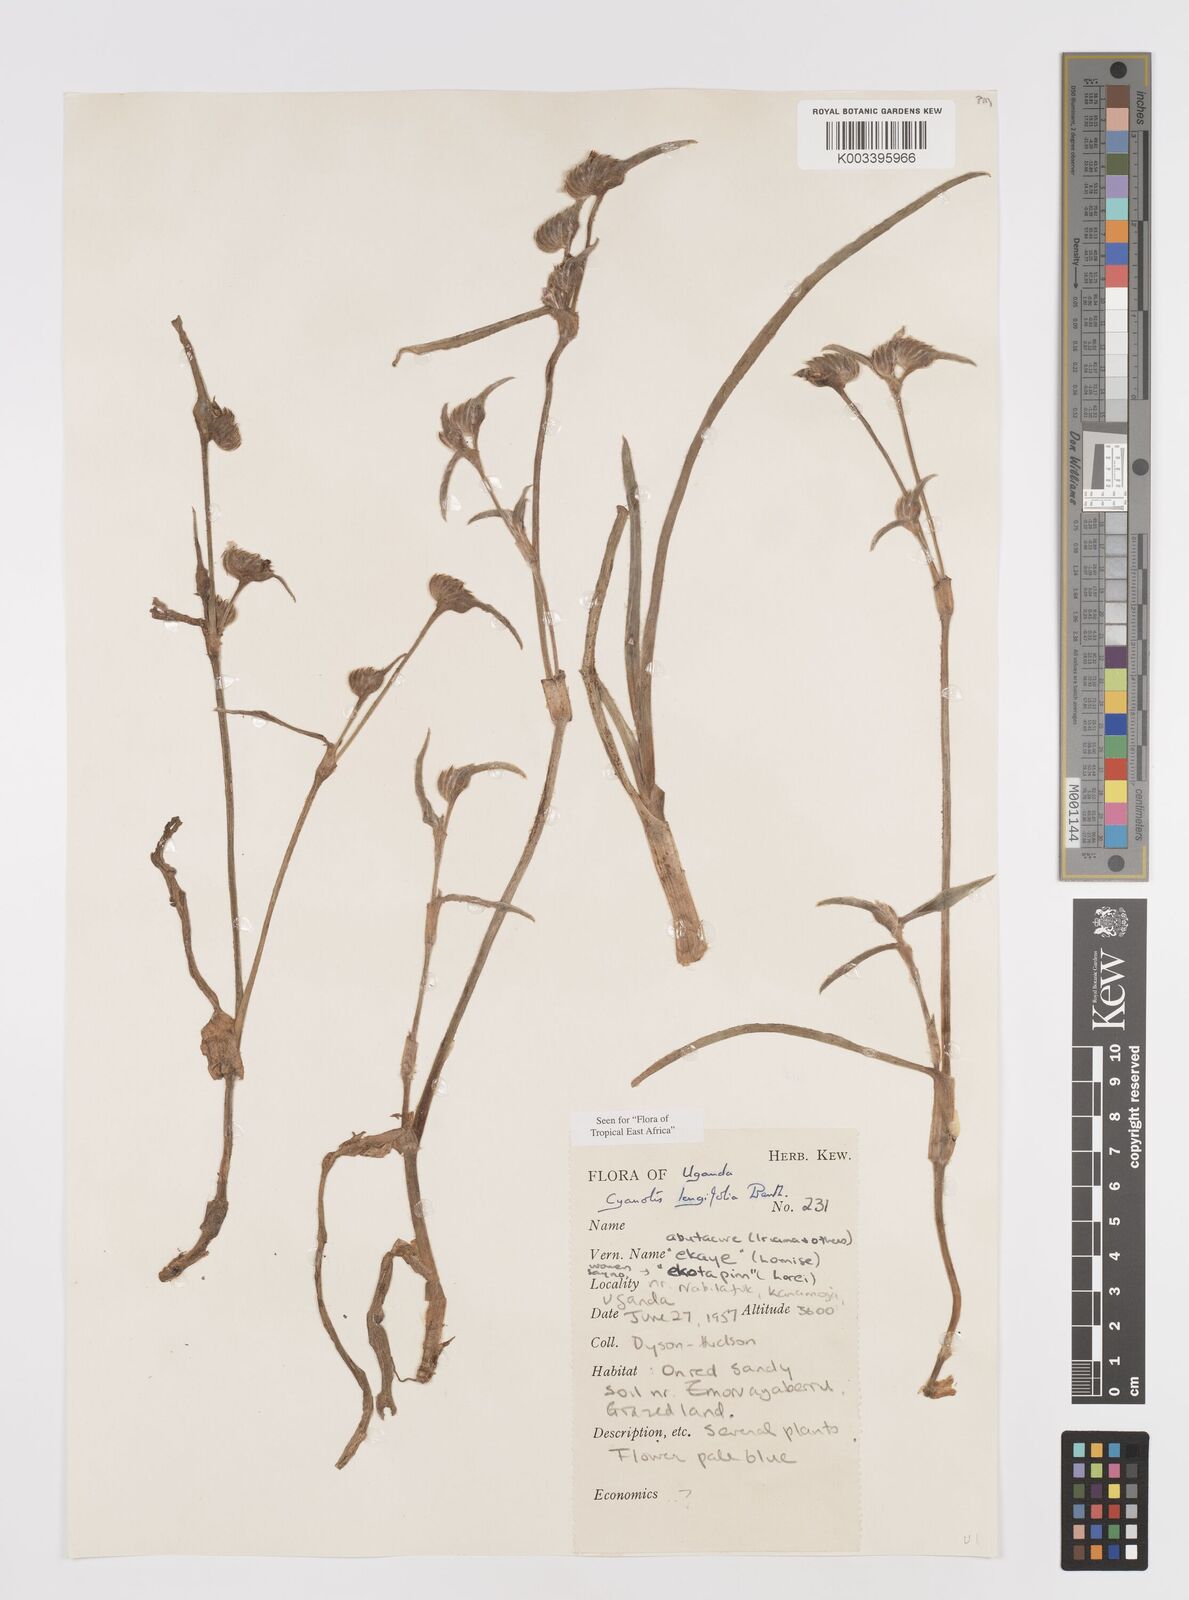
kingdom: Plantae
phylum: Tracheophyta
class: Liliopsida
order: Commelinales
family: Commelinaceae
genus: Cyanotis
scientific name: Cyanotis longifolia
